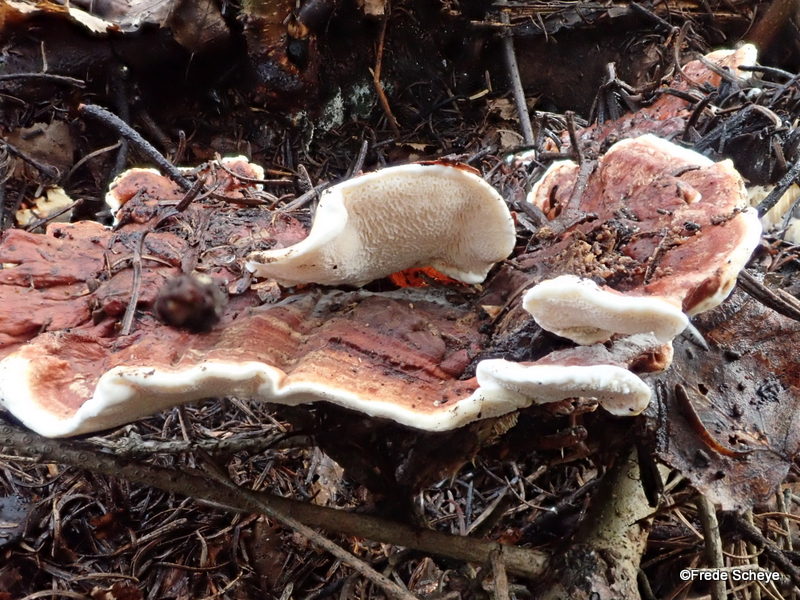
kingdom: Fungi
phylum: Basidiomycota
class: Agaricomycetes
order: Polyporales
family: Polyporaceae
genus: Lenzites
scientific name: Lenzites betulinus
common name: birke-læderporesvamp
